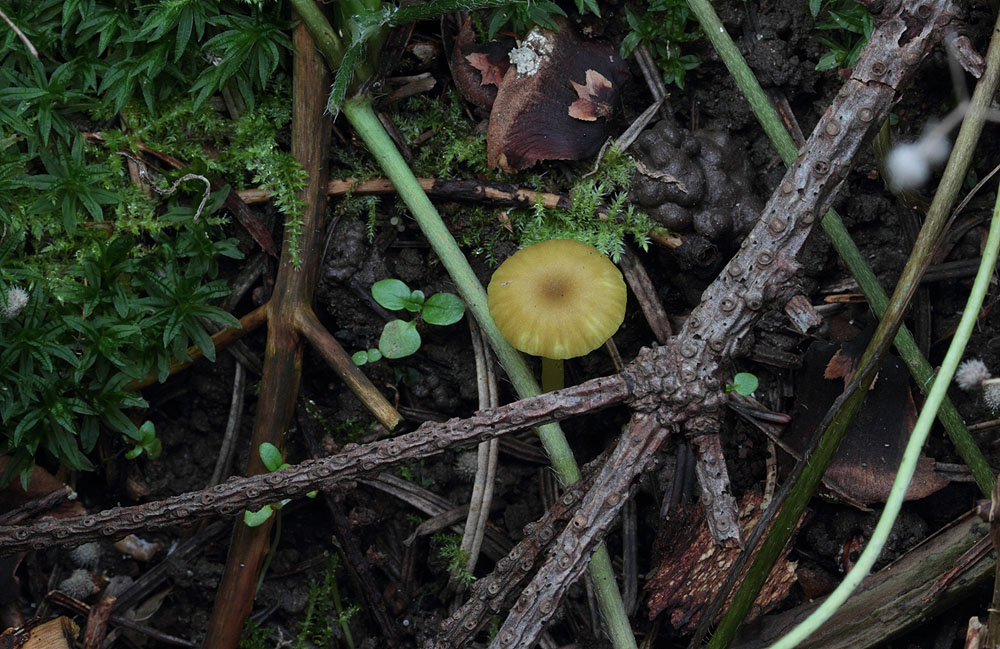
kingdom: Fungi
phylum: Basidiomycota
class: Agaricomycetes
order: Agaricales
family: Hygrophoraceae
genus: Chrysomphalina
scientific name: Chrysomphalina grossula
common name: stød-gyldenblad
